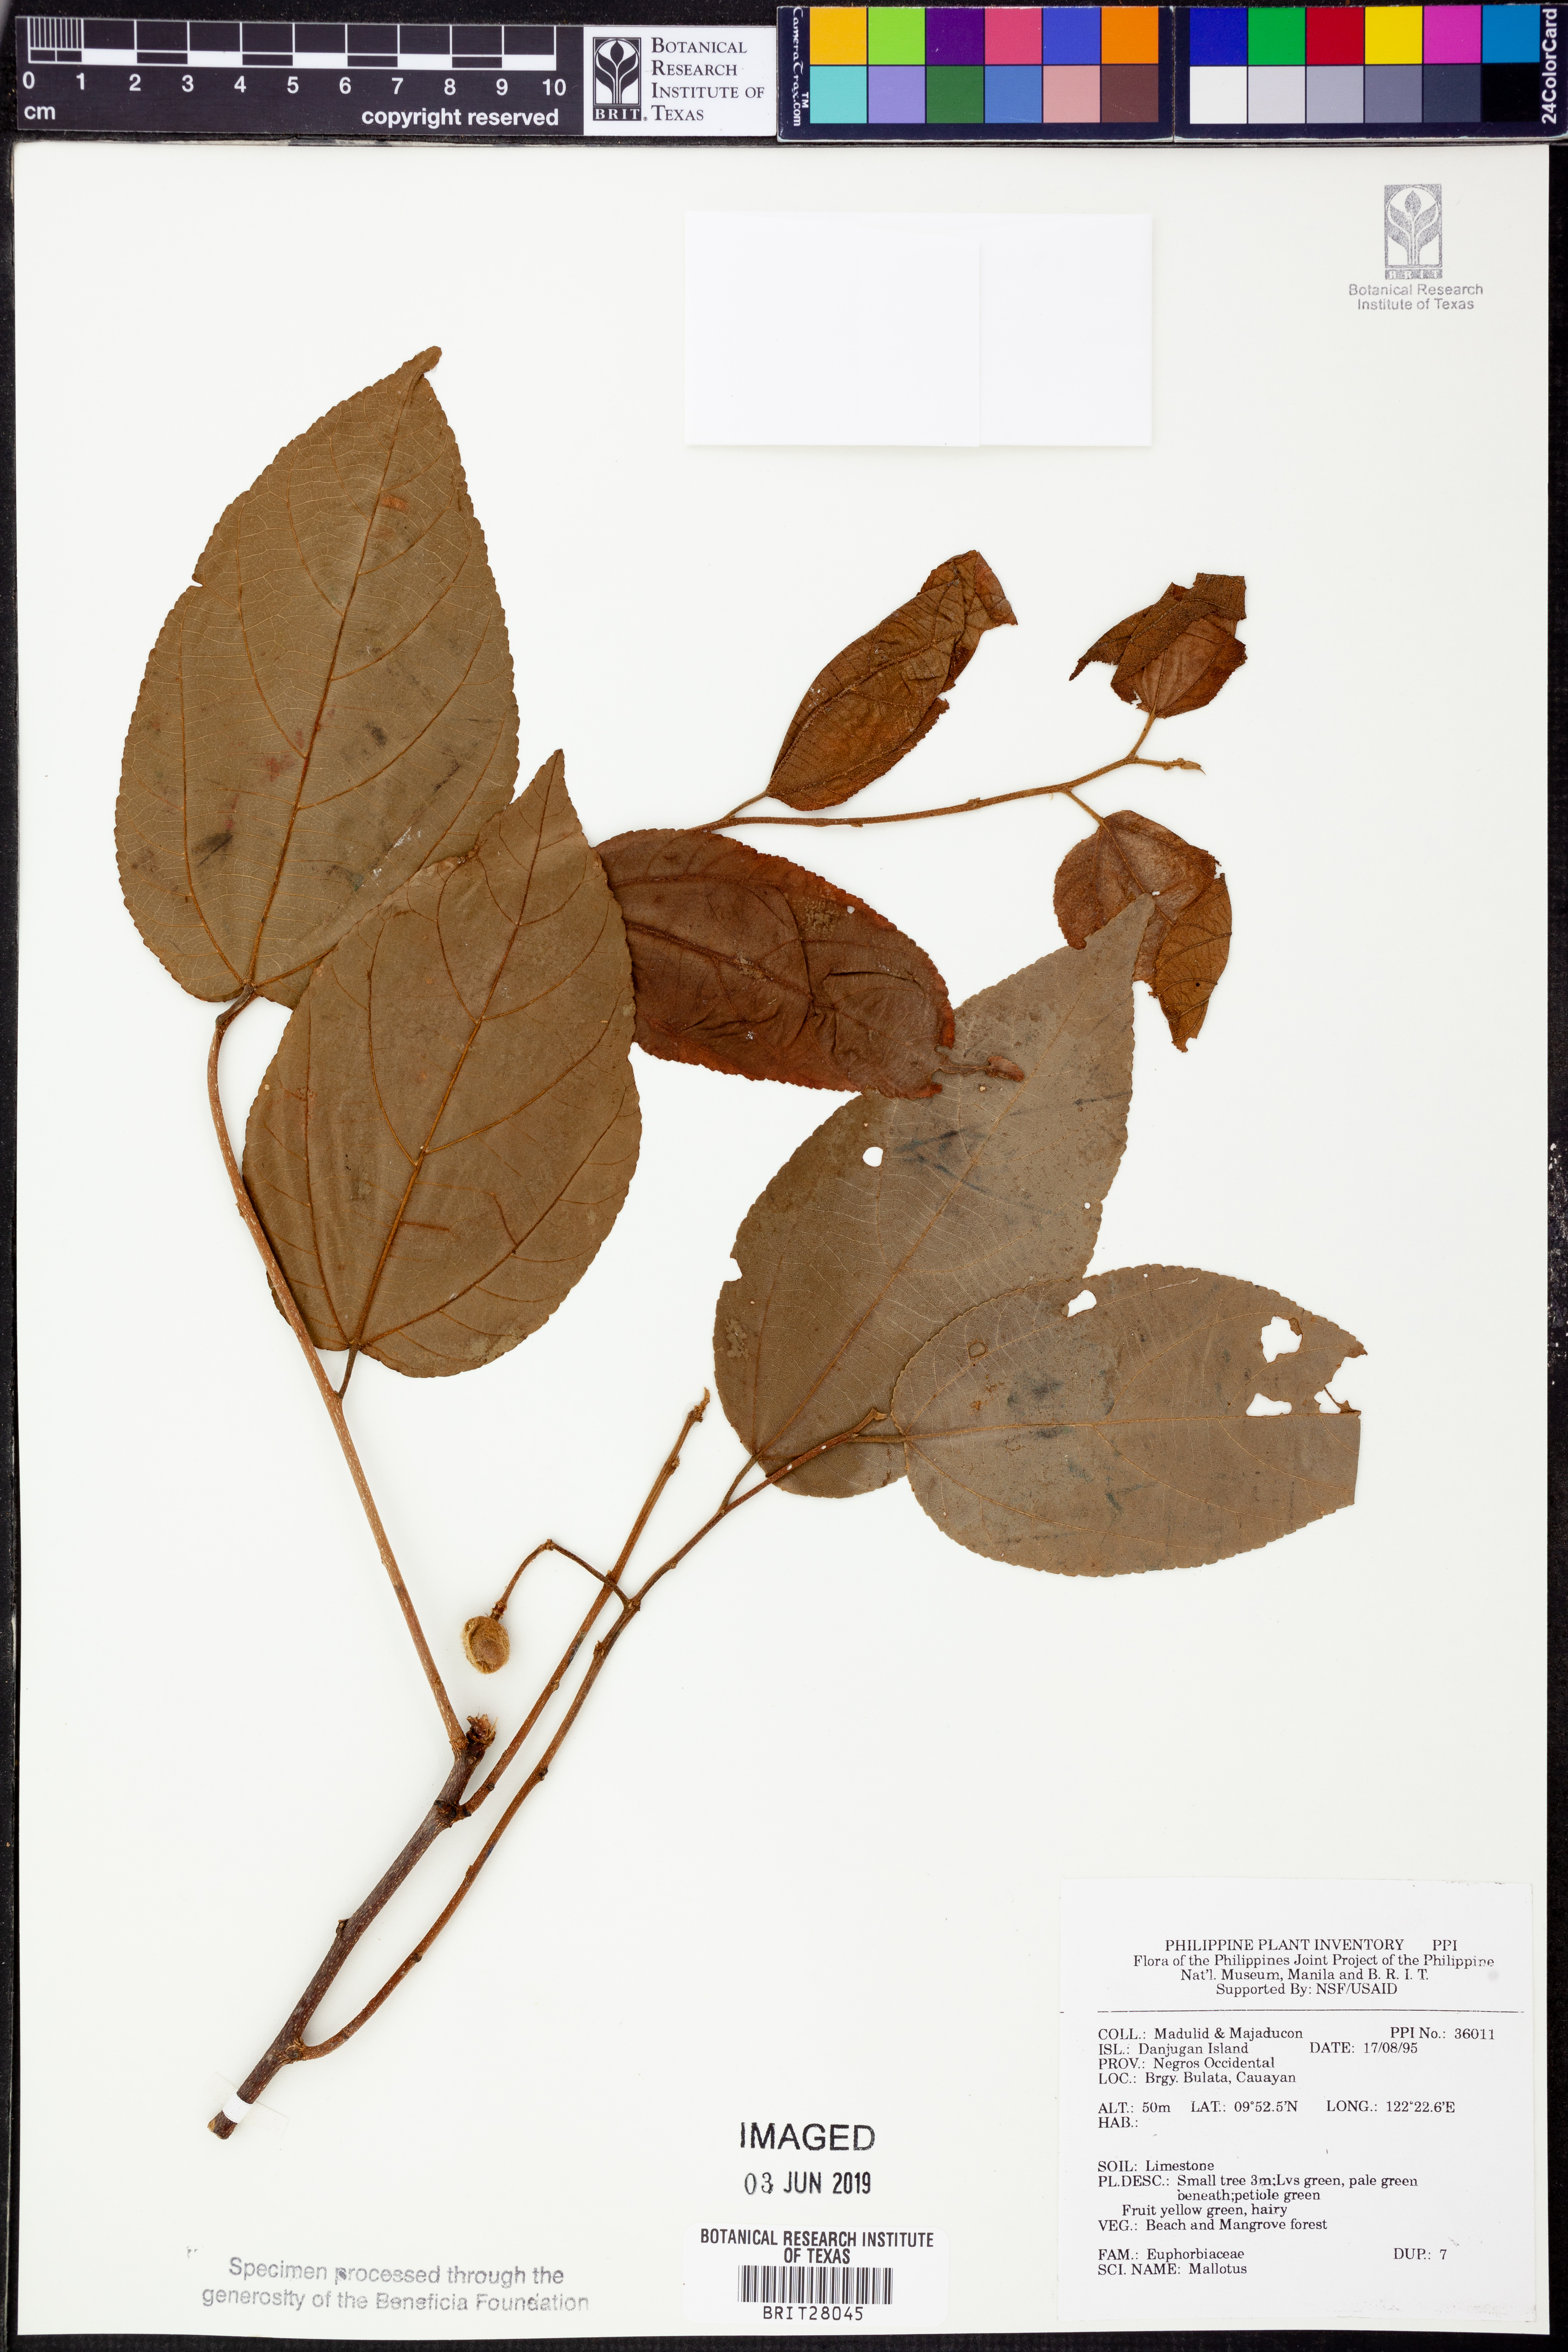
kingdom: Plantae
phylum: Tracheophyta
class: Magnoliopsida
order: Malpighiales
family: Euphorbiaceae
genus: Mallotus
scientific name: Mallotus
